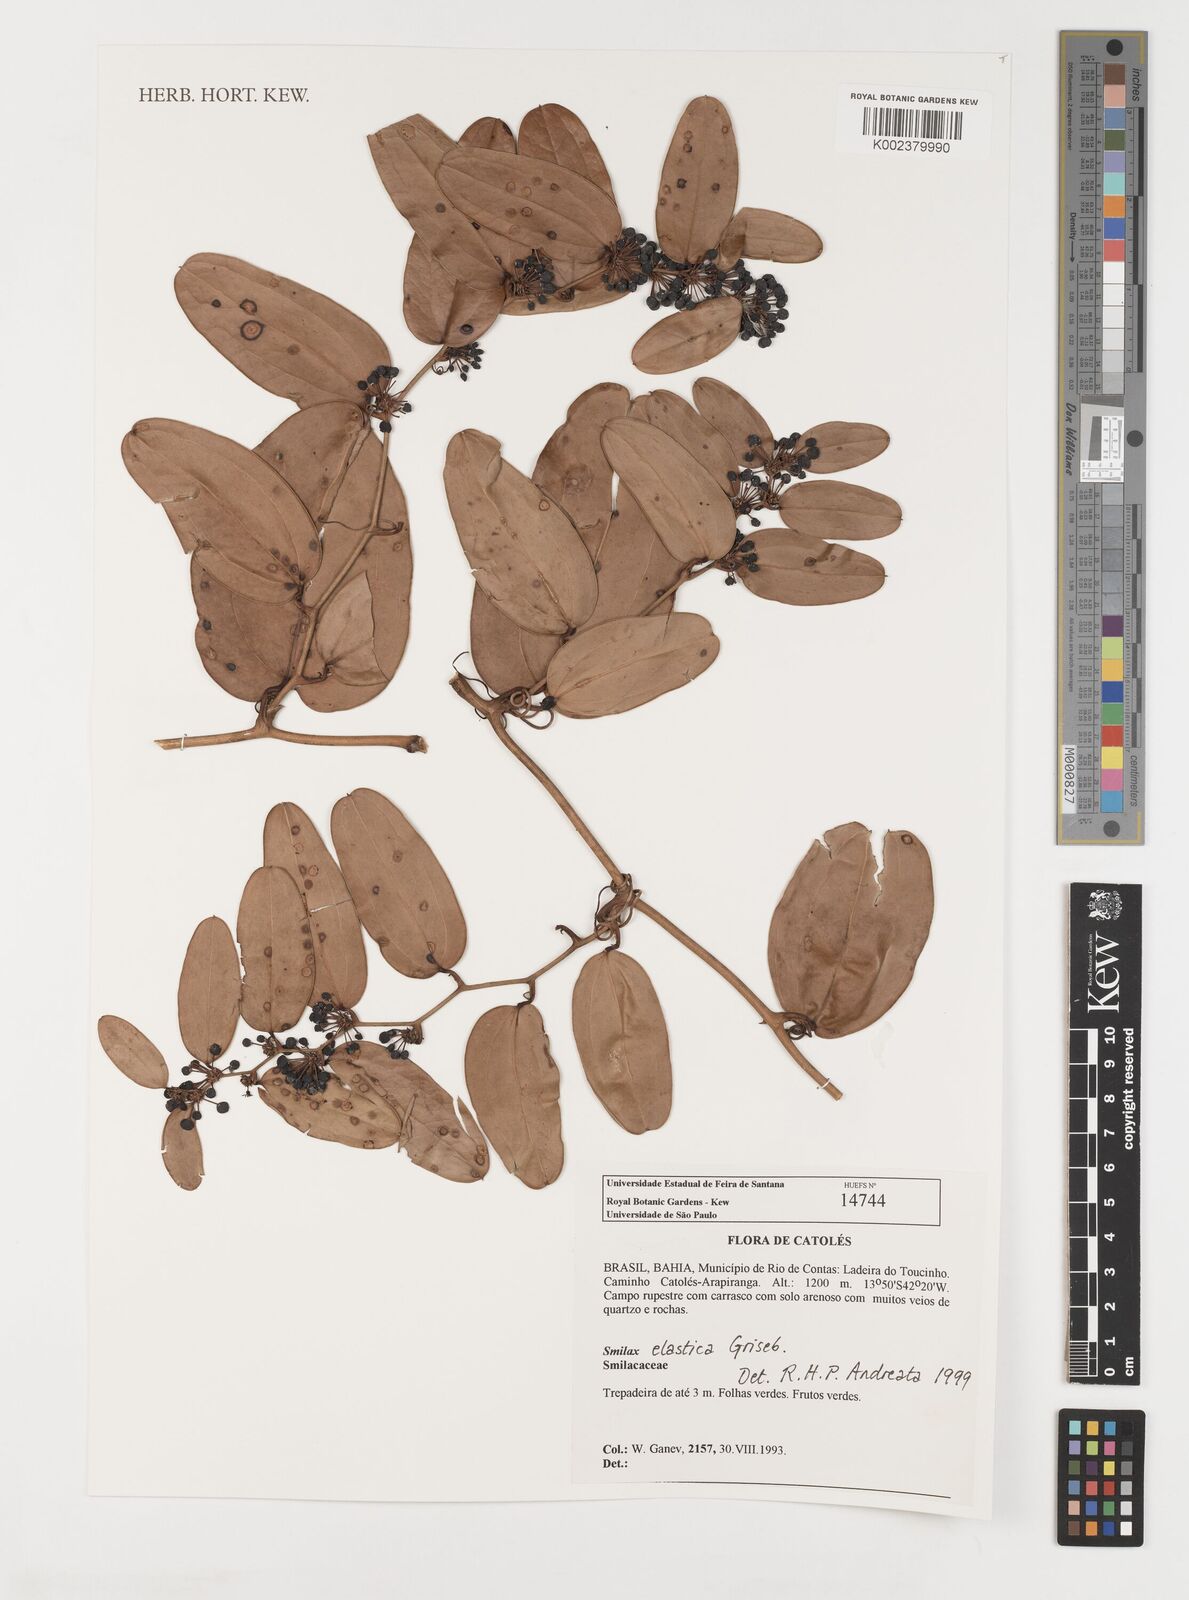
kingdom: Plantae
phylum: Tracheophyta
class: Liliopsida
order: Liliales
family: Smilacaceae
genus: Smilax
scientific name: Smilax elastica
